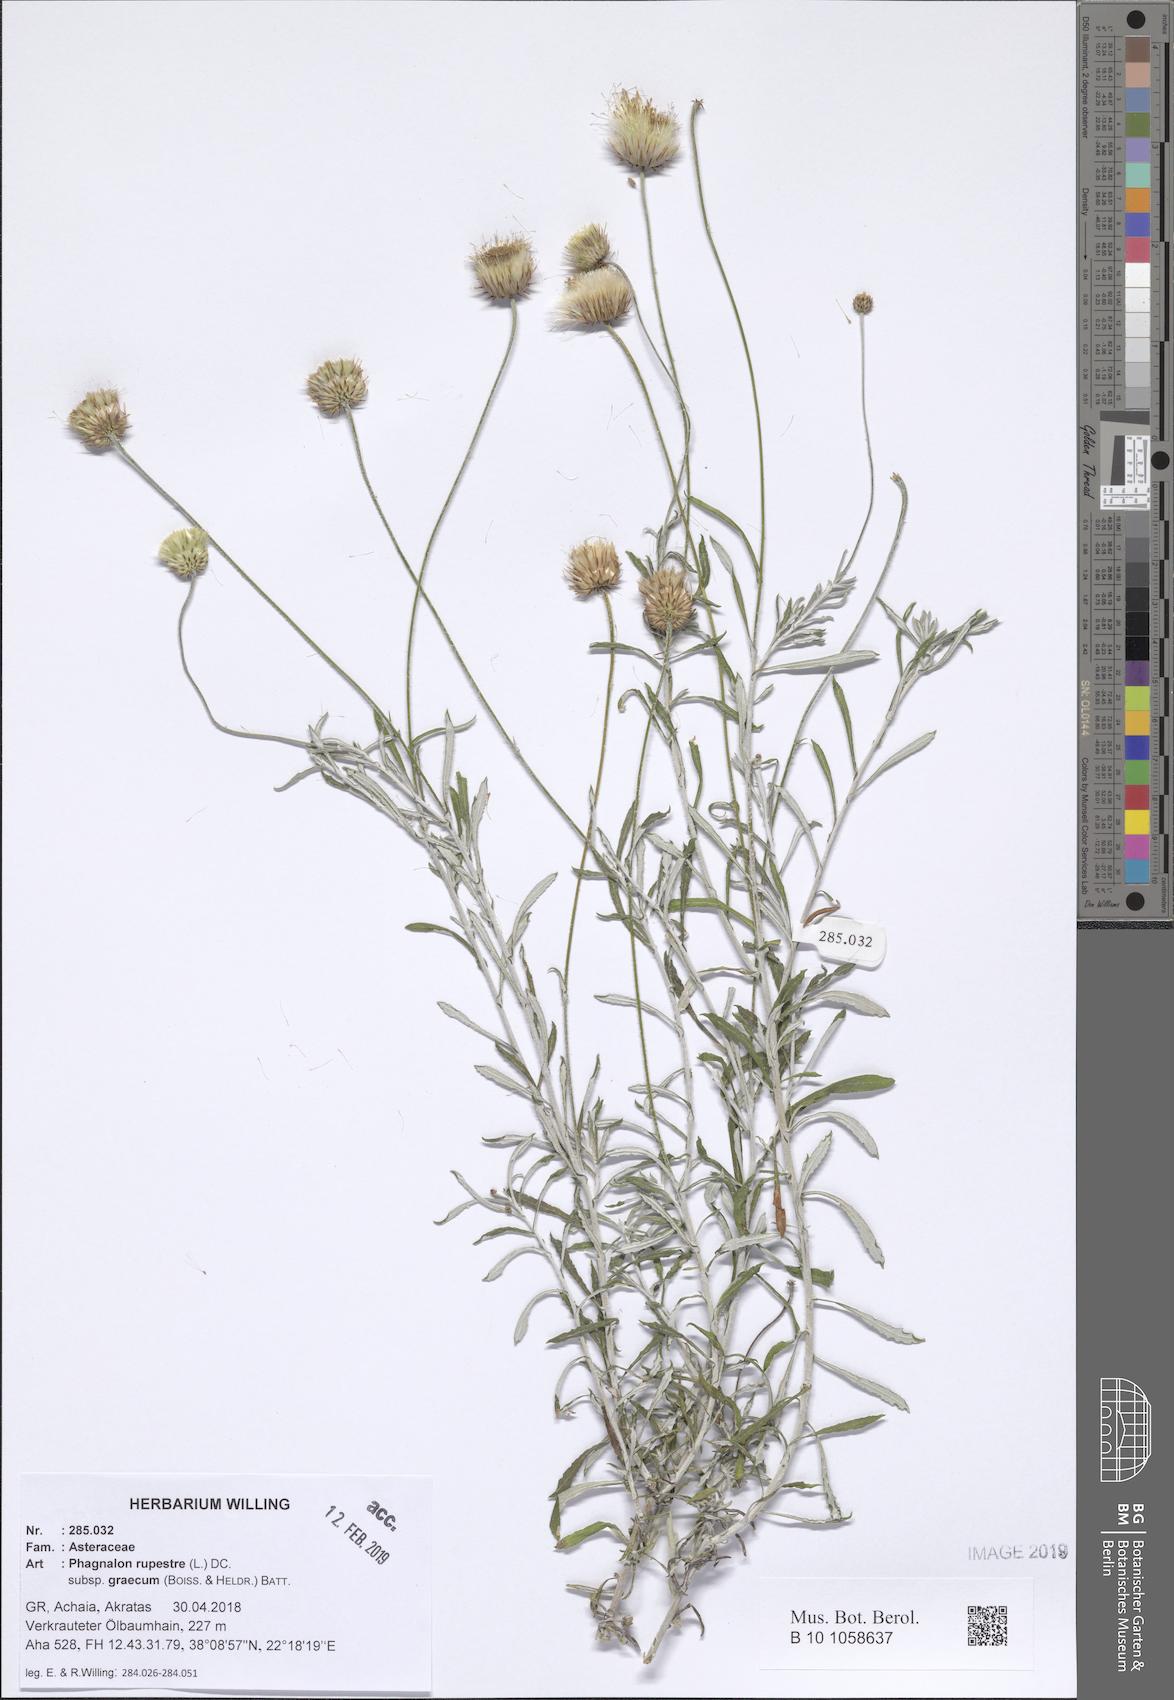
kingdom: Plantae
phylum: Tracheophyta
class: Magnoliopsida
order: Asterales
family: Asteraceae
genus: Phagnalon
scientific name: Phagnalon graecum
